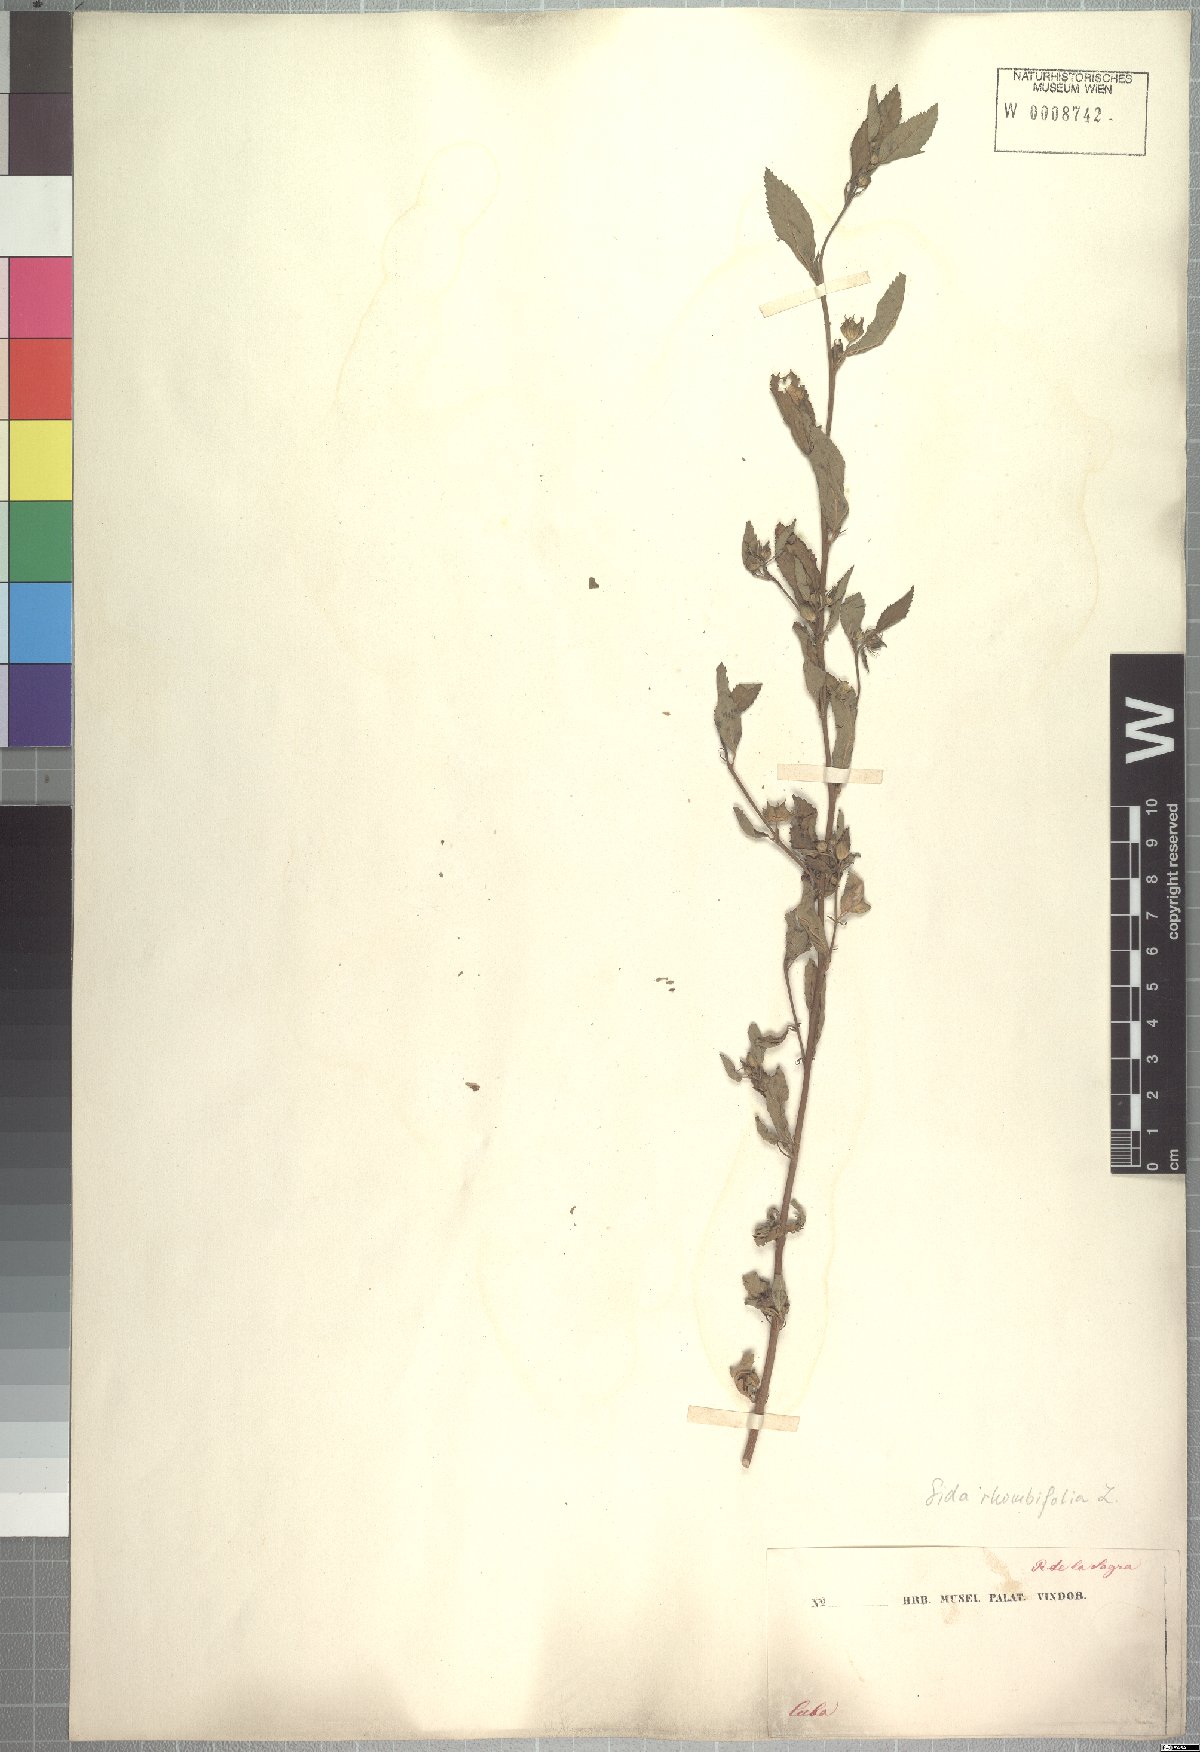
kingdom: Plantae
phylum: Tracheophyta
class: Magnoliopsida
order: Malvales
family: Malvaceae
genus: Sida
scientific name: Sida rhombifolia
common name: Queensland-hemp
